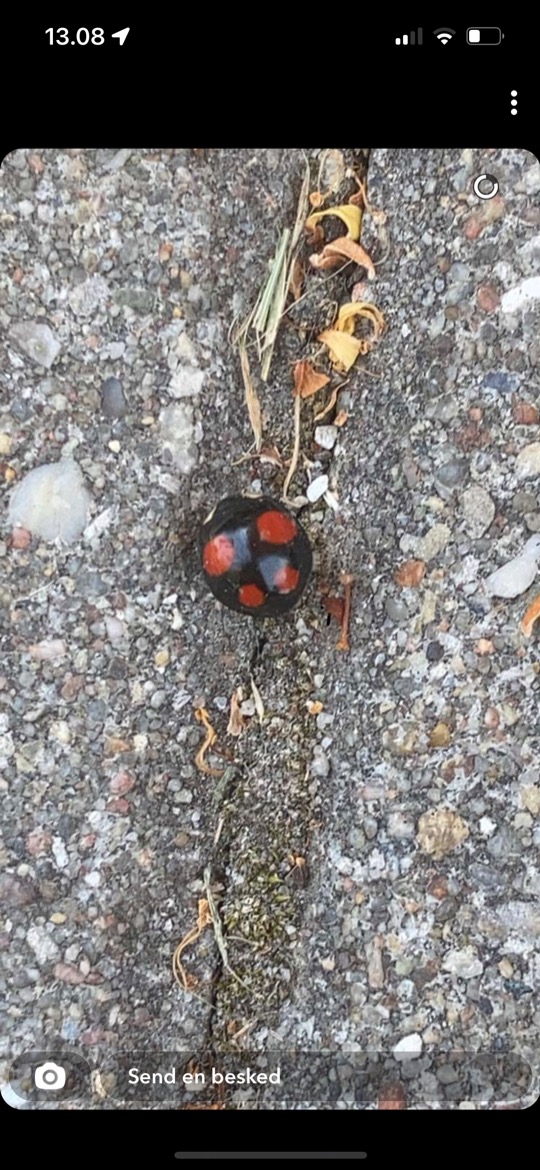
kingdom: Animalia
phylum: Arthropoda
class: Insecta
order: Coleoptera
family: Coccinellidae
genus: Harmonia
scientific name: Harmonia axyridis
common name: Harlekinmariehøne
